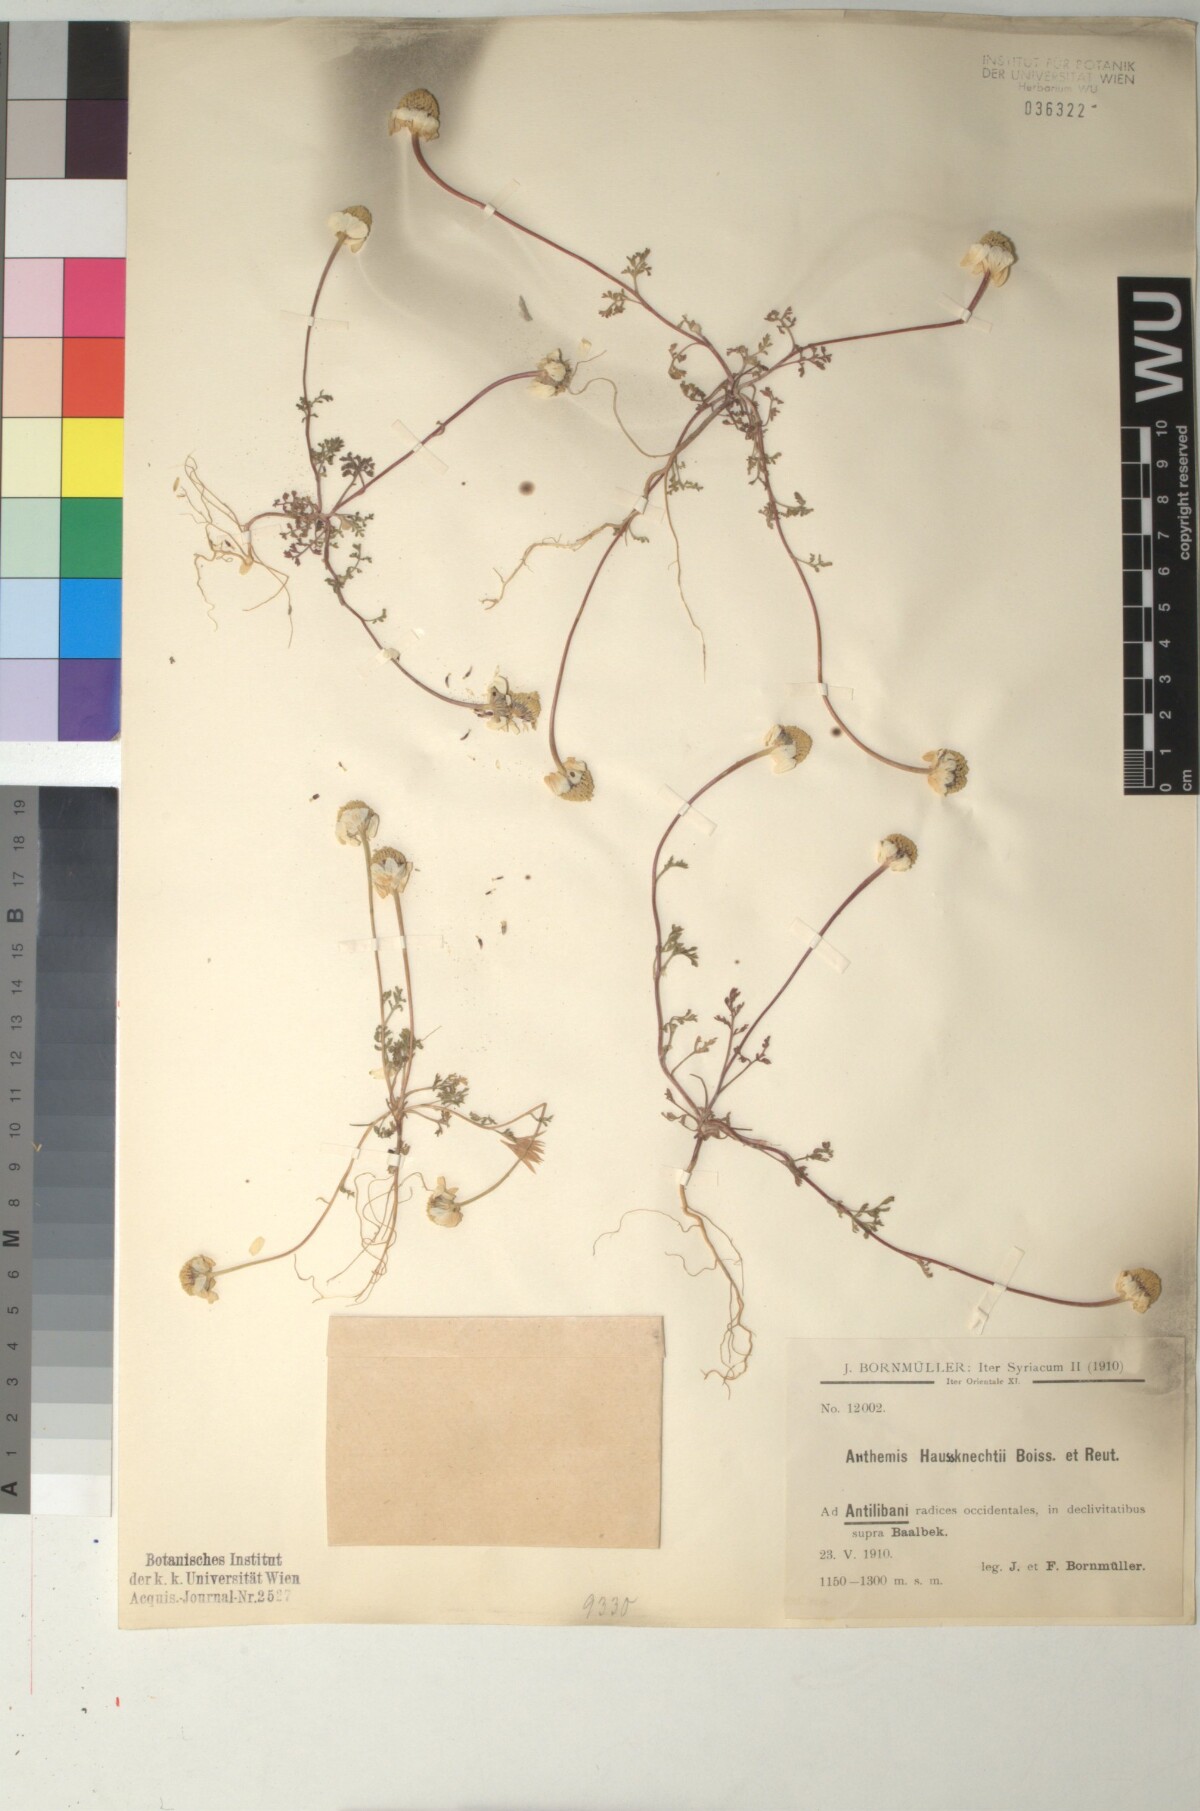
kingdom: Plantae
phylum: Tracheophyta
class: Magnoliopsida
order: Asterales
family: Asteraceae
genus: Anthemis
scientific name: Anthemis haussknechtii
